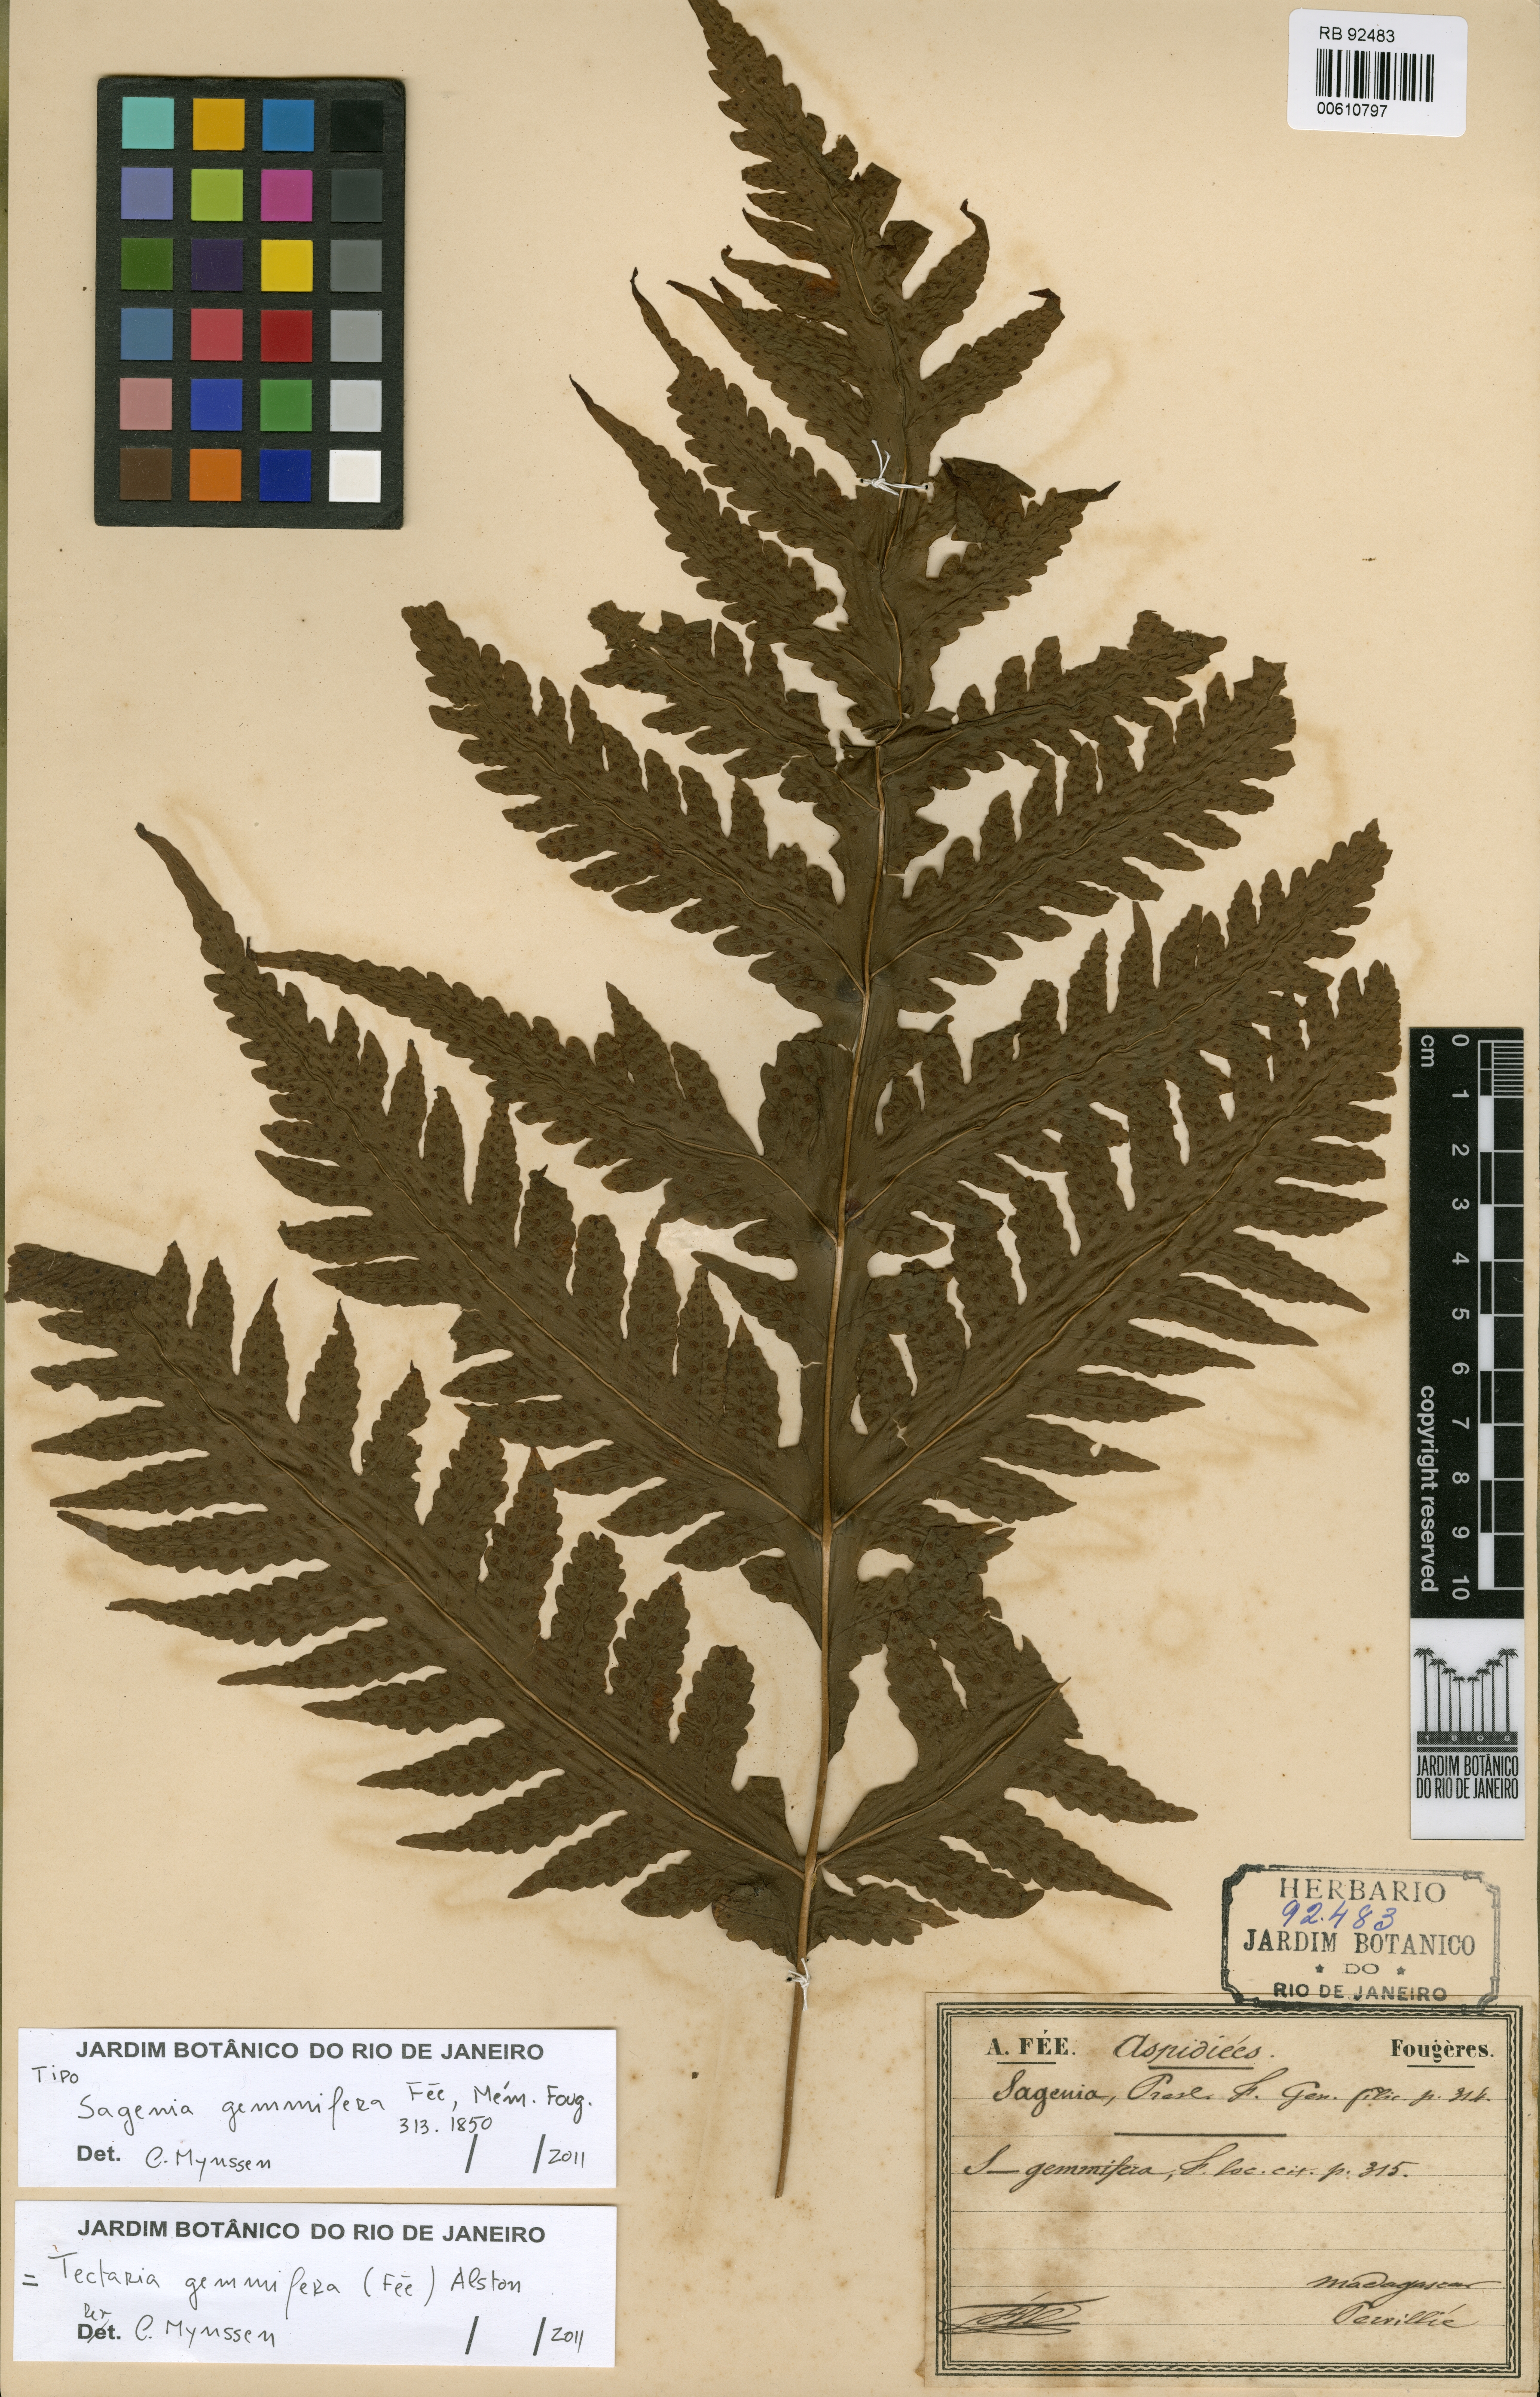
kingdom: Plantae
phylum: Tracheophyta
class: Polypodiopsida
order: Polypodiales
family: Tectariaceae
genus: Tectaria
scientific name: Tectaria gemmifera
